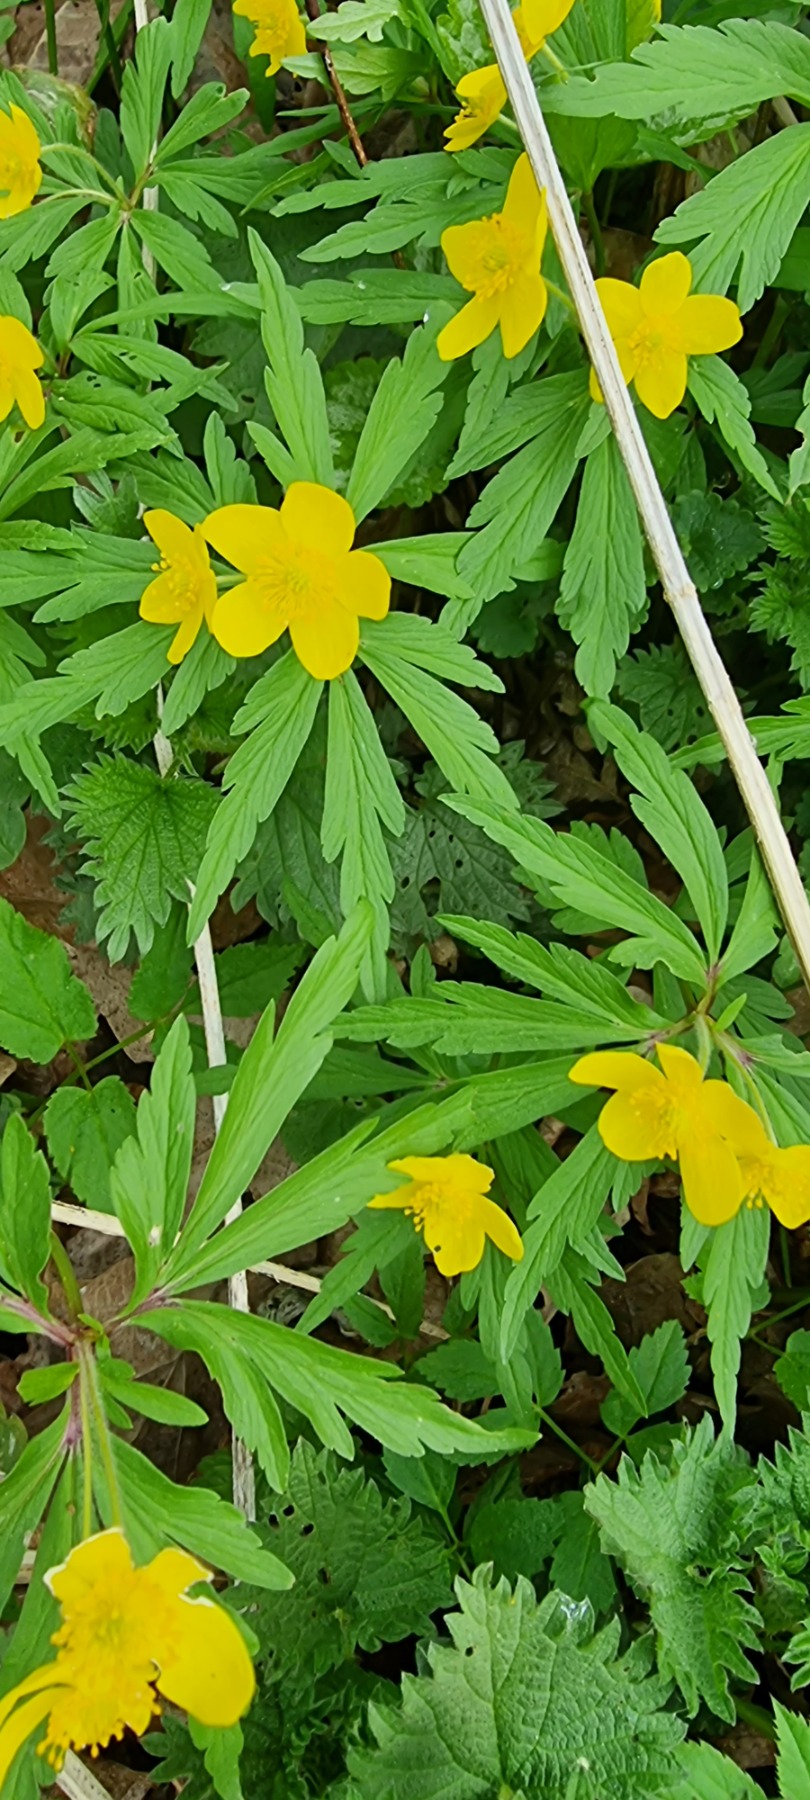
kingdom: Plantae
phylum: Tracheophyta
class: Magnoliopsida
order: Ranunculales
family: Ranunculaceae
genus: Anemone
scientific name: Anemone ranunculoides
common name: Gul anemone
